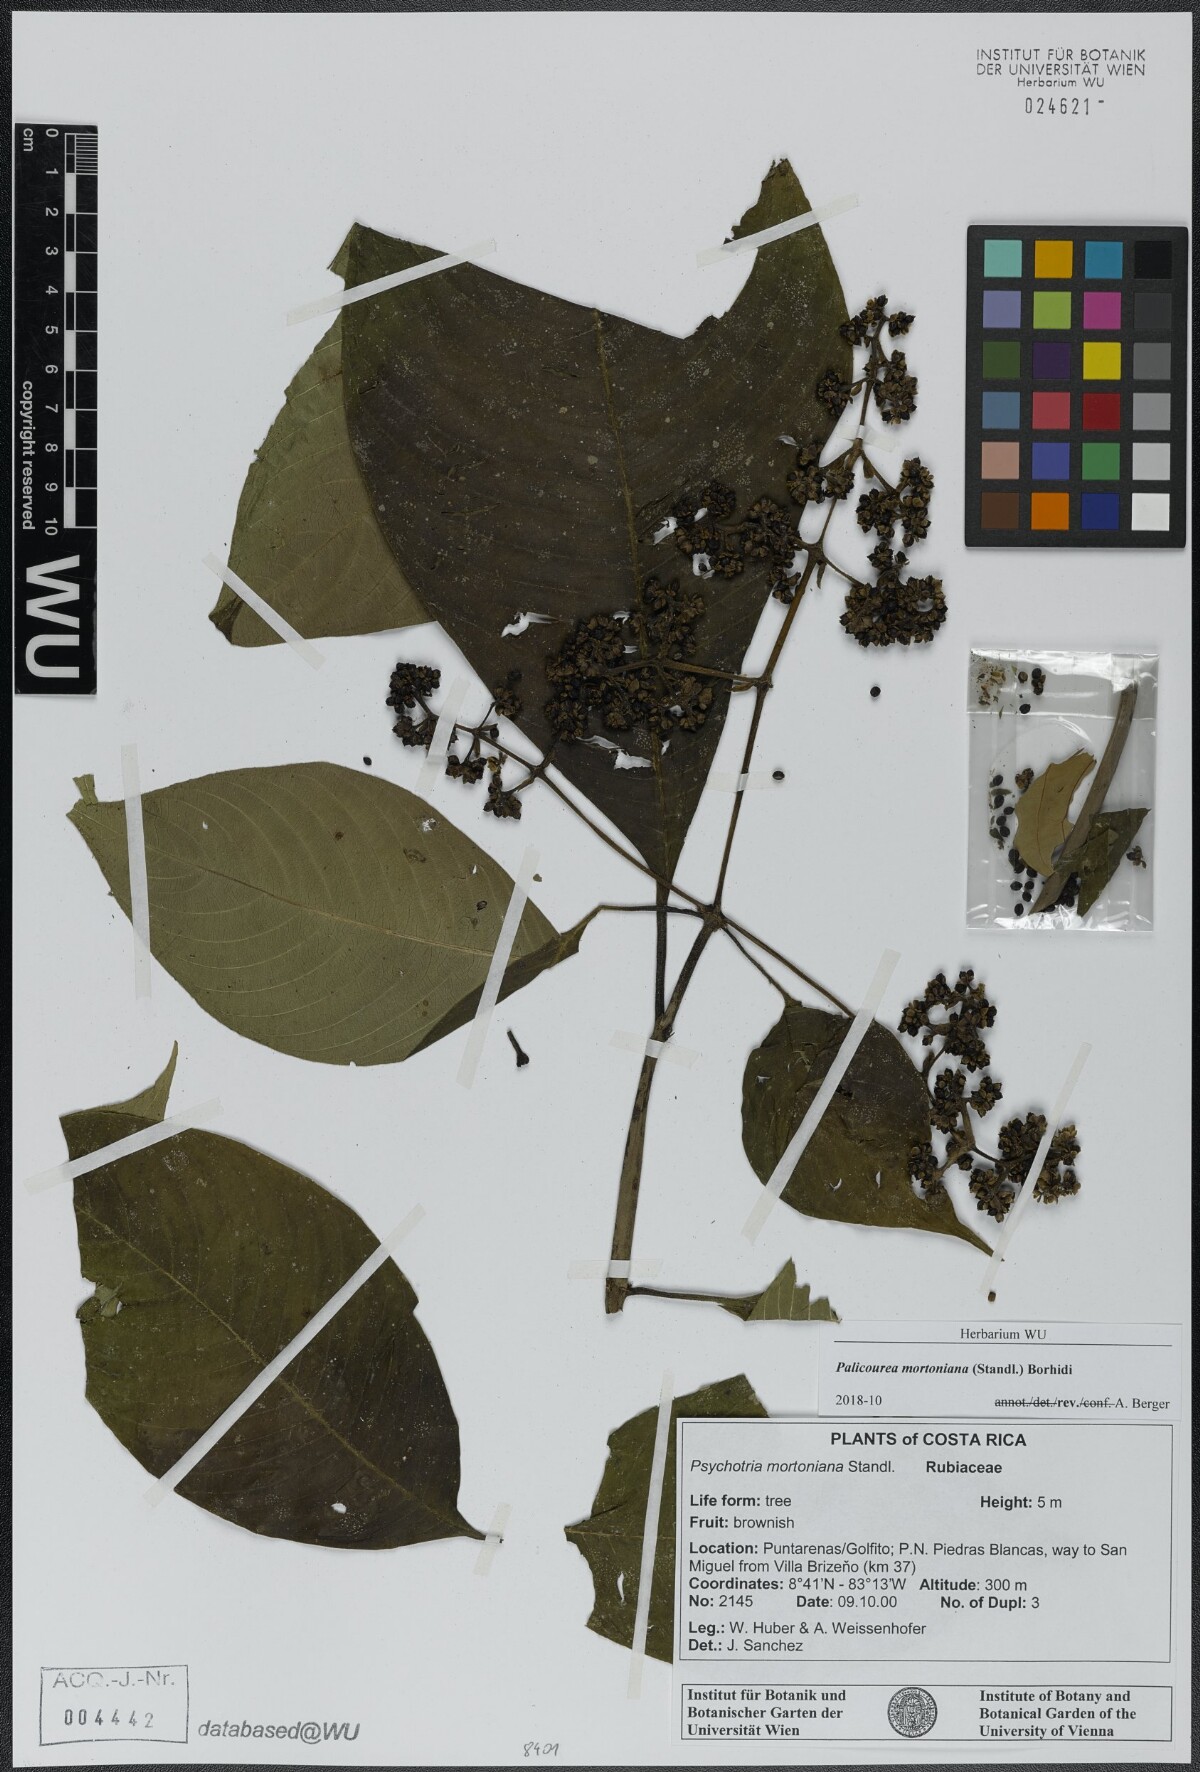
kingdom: Plantae
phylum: Tracheophyta
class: Magnoliopsida
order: Gentianales
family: Rubiaceae
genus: Palicourea
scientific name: Palicourea mortoniana
